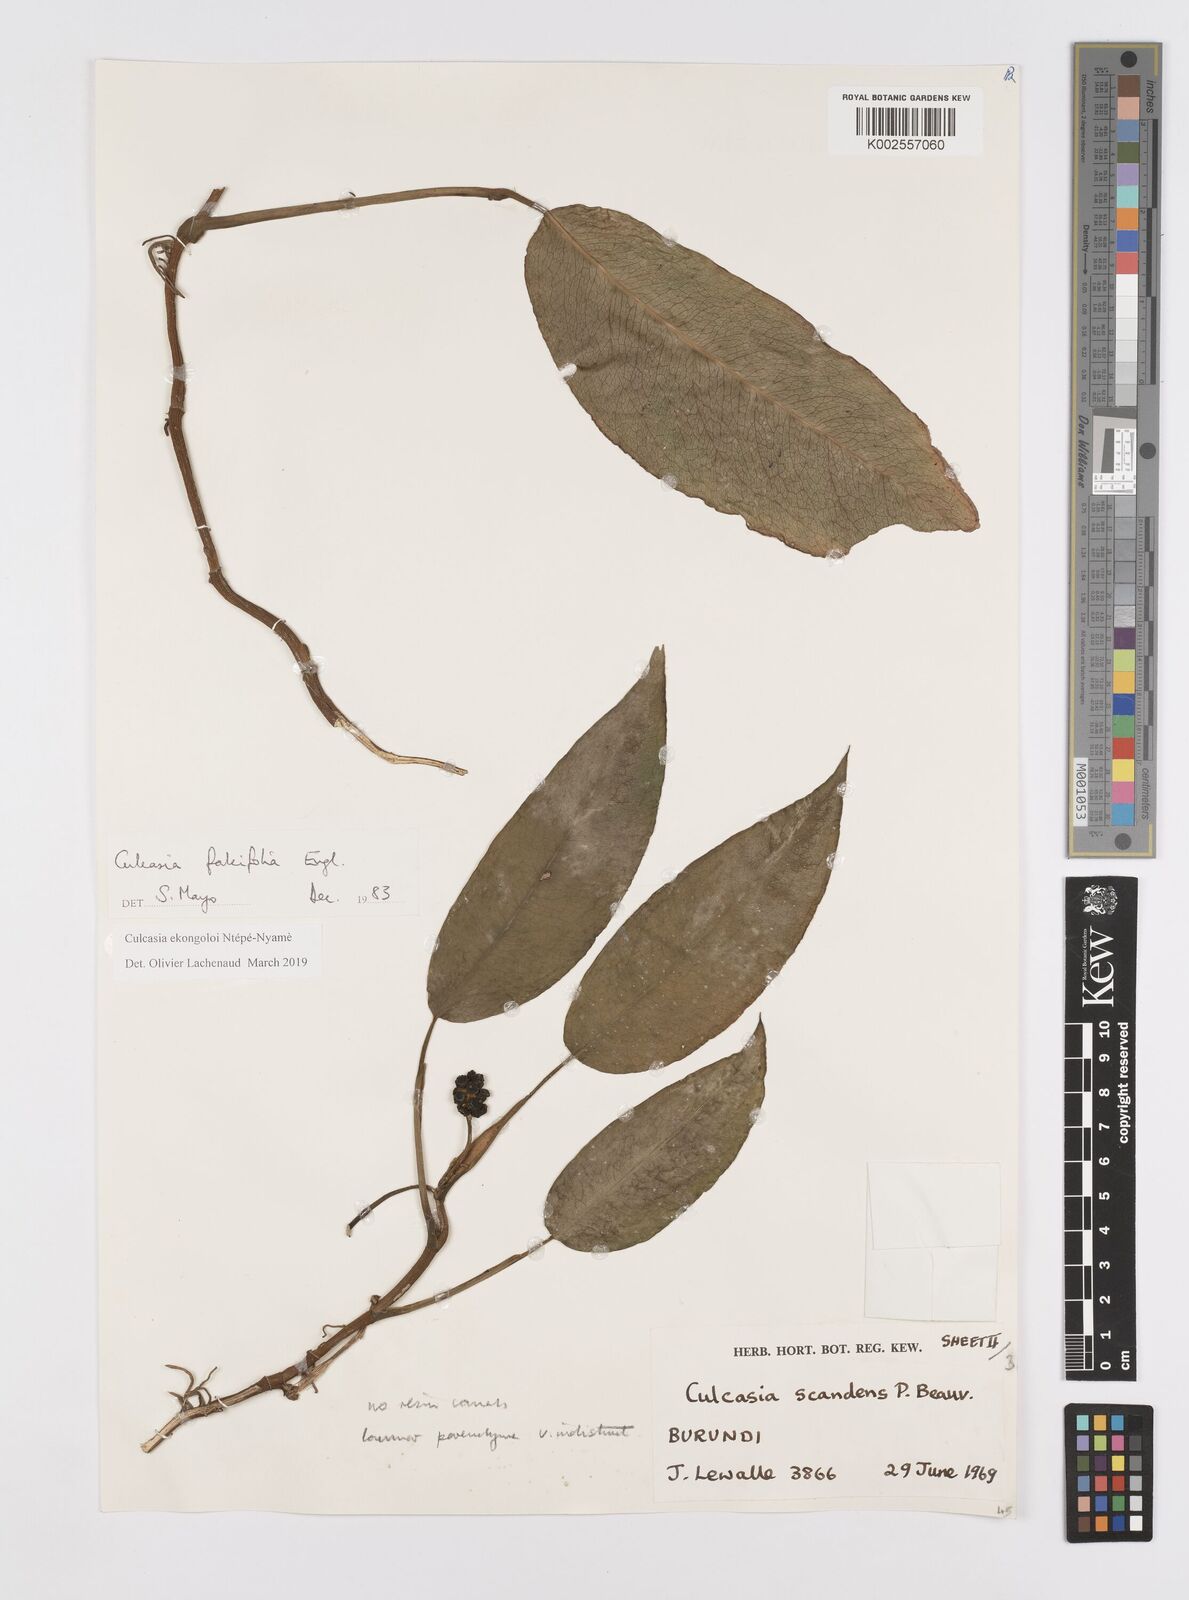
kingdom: Plantae
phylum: Tracheophyta
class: Liliopsida
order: Alismatales
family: Araceae
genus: Culcasia
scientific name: Culcasia ekongoloi
